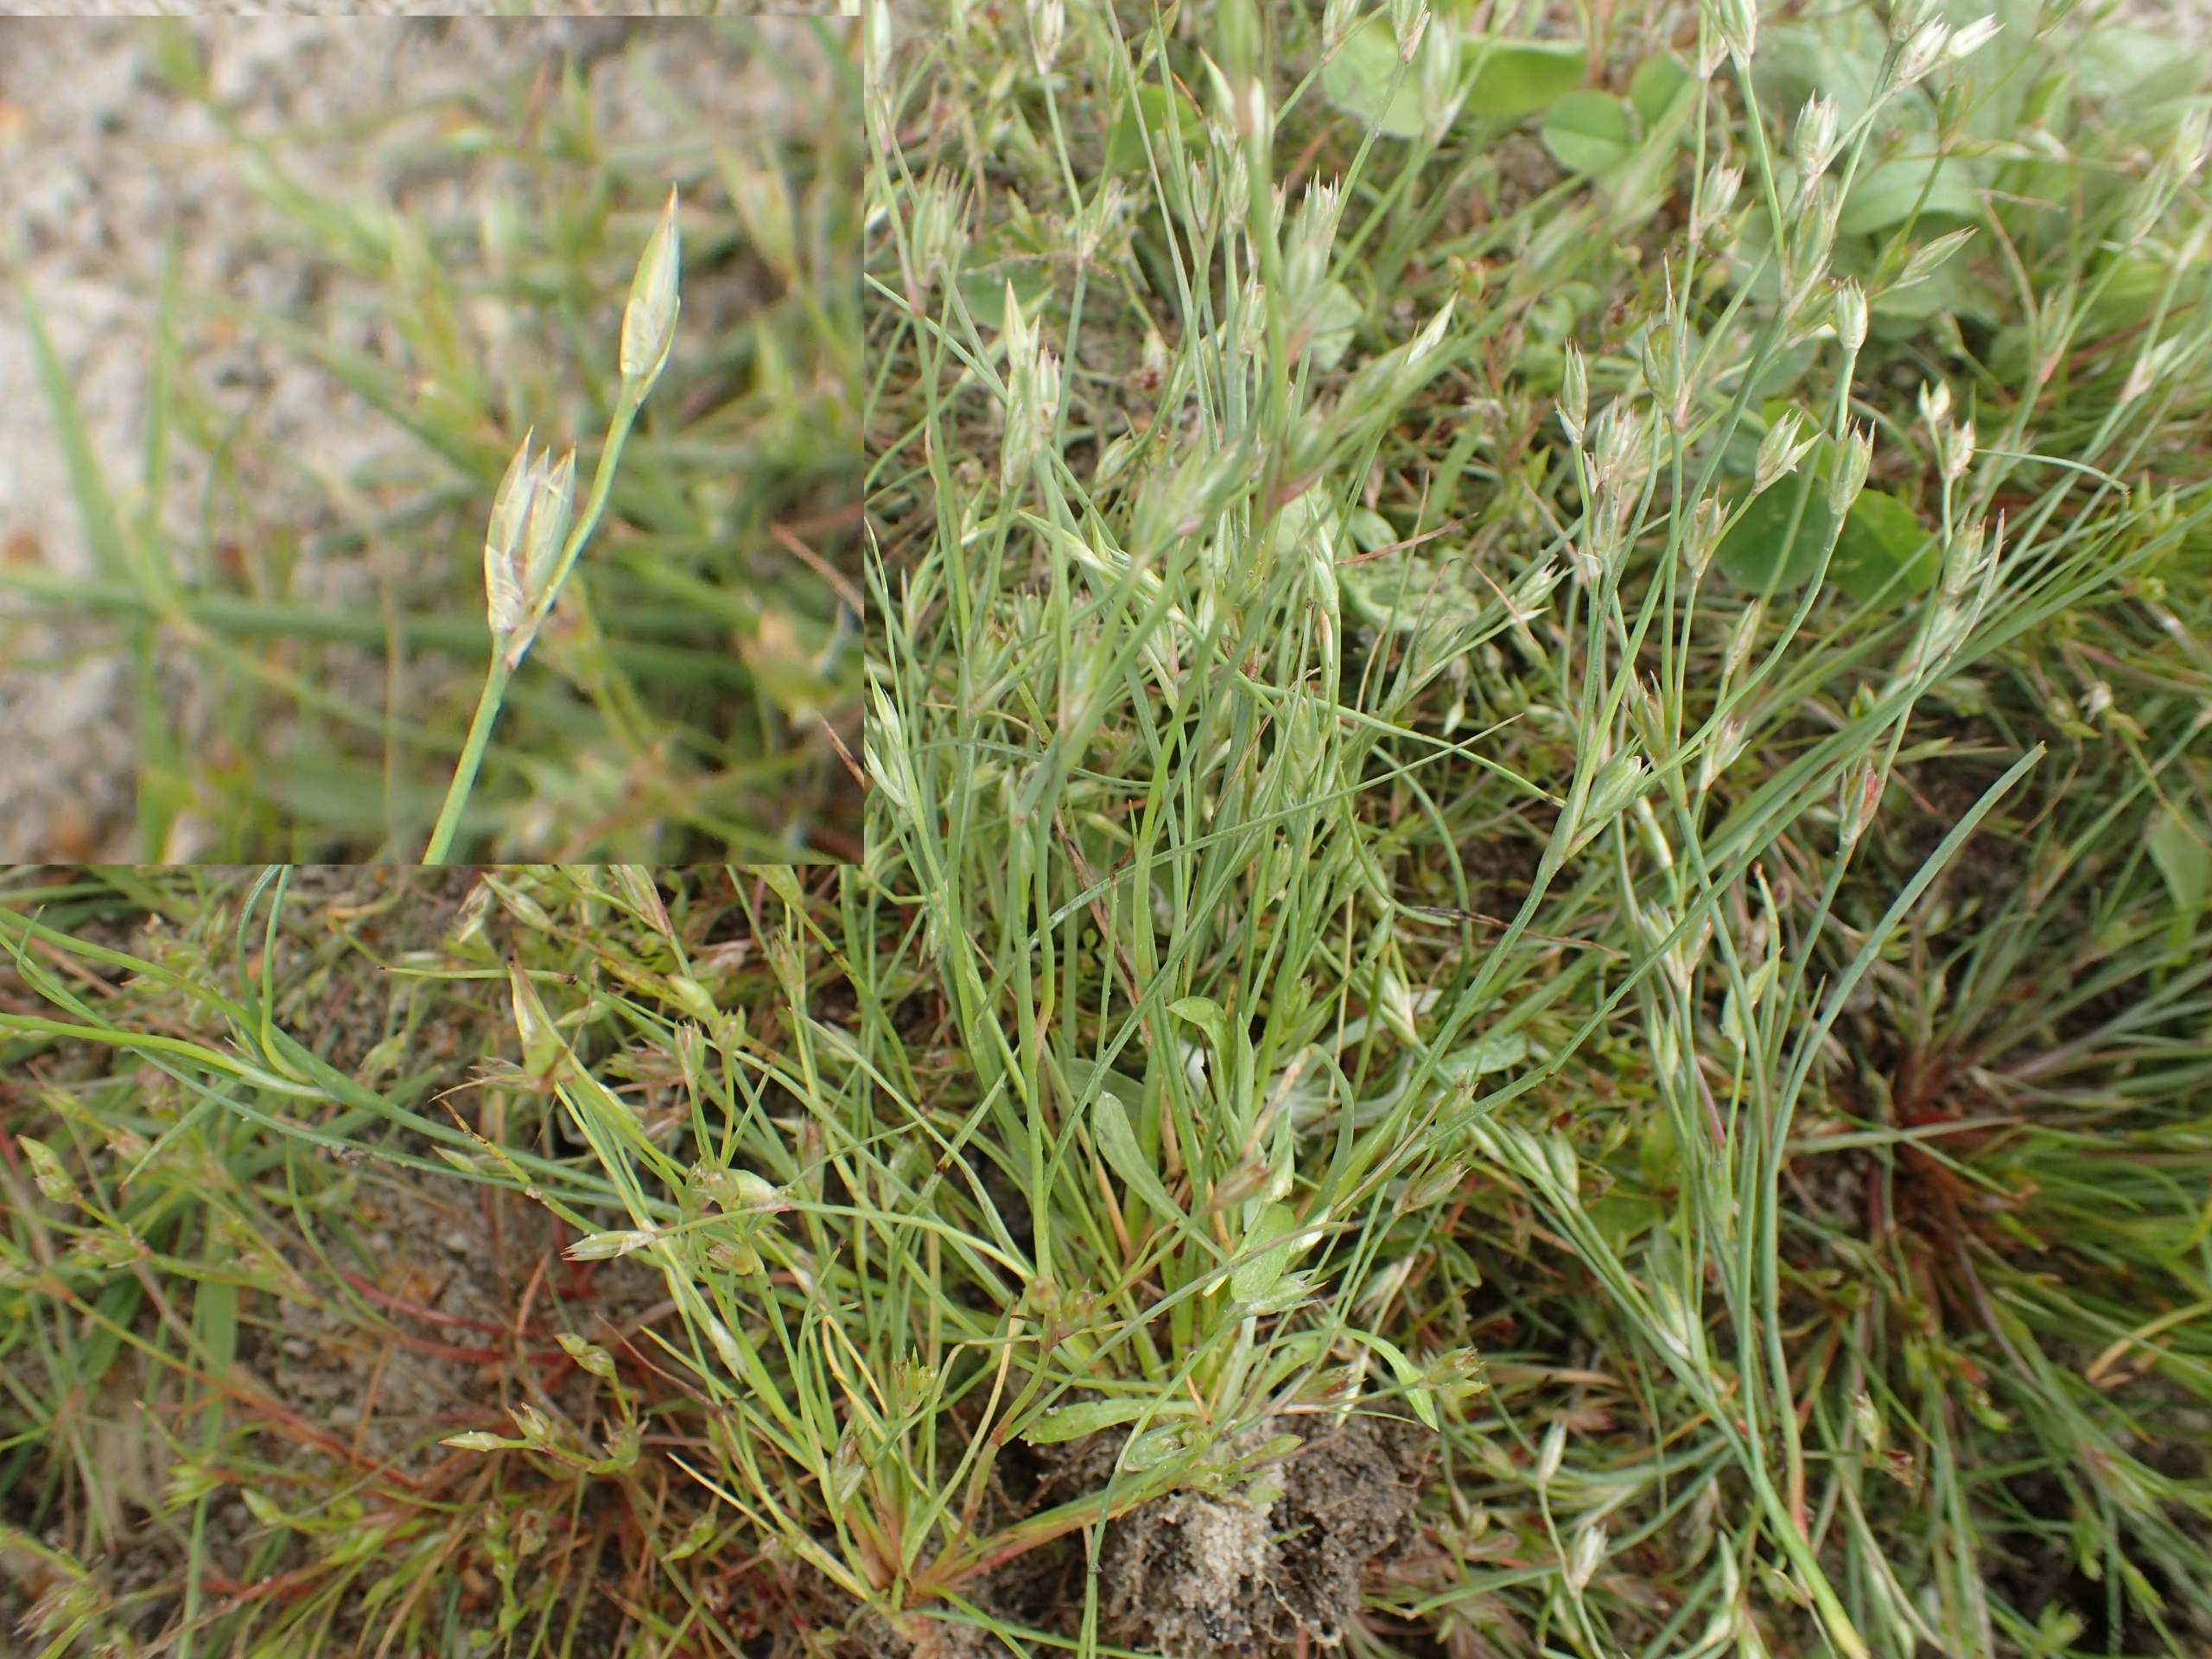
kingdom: Plantae
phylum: Tracheophyta
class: Liliopsida
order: Poales
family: Juncaceae
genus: Juncus
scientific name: Juncus bufonius
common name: Tudse-siv
